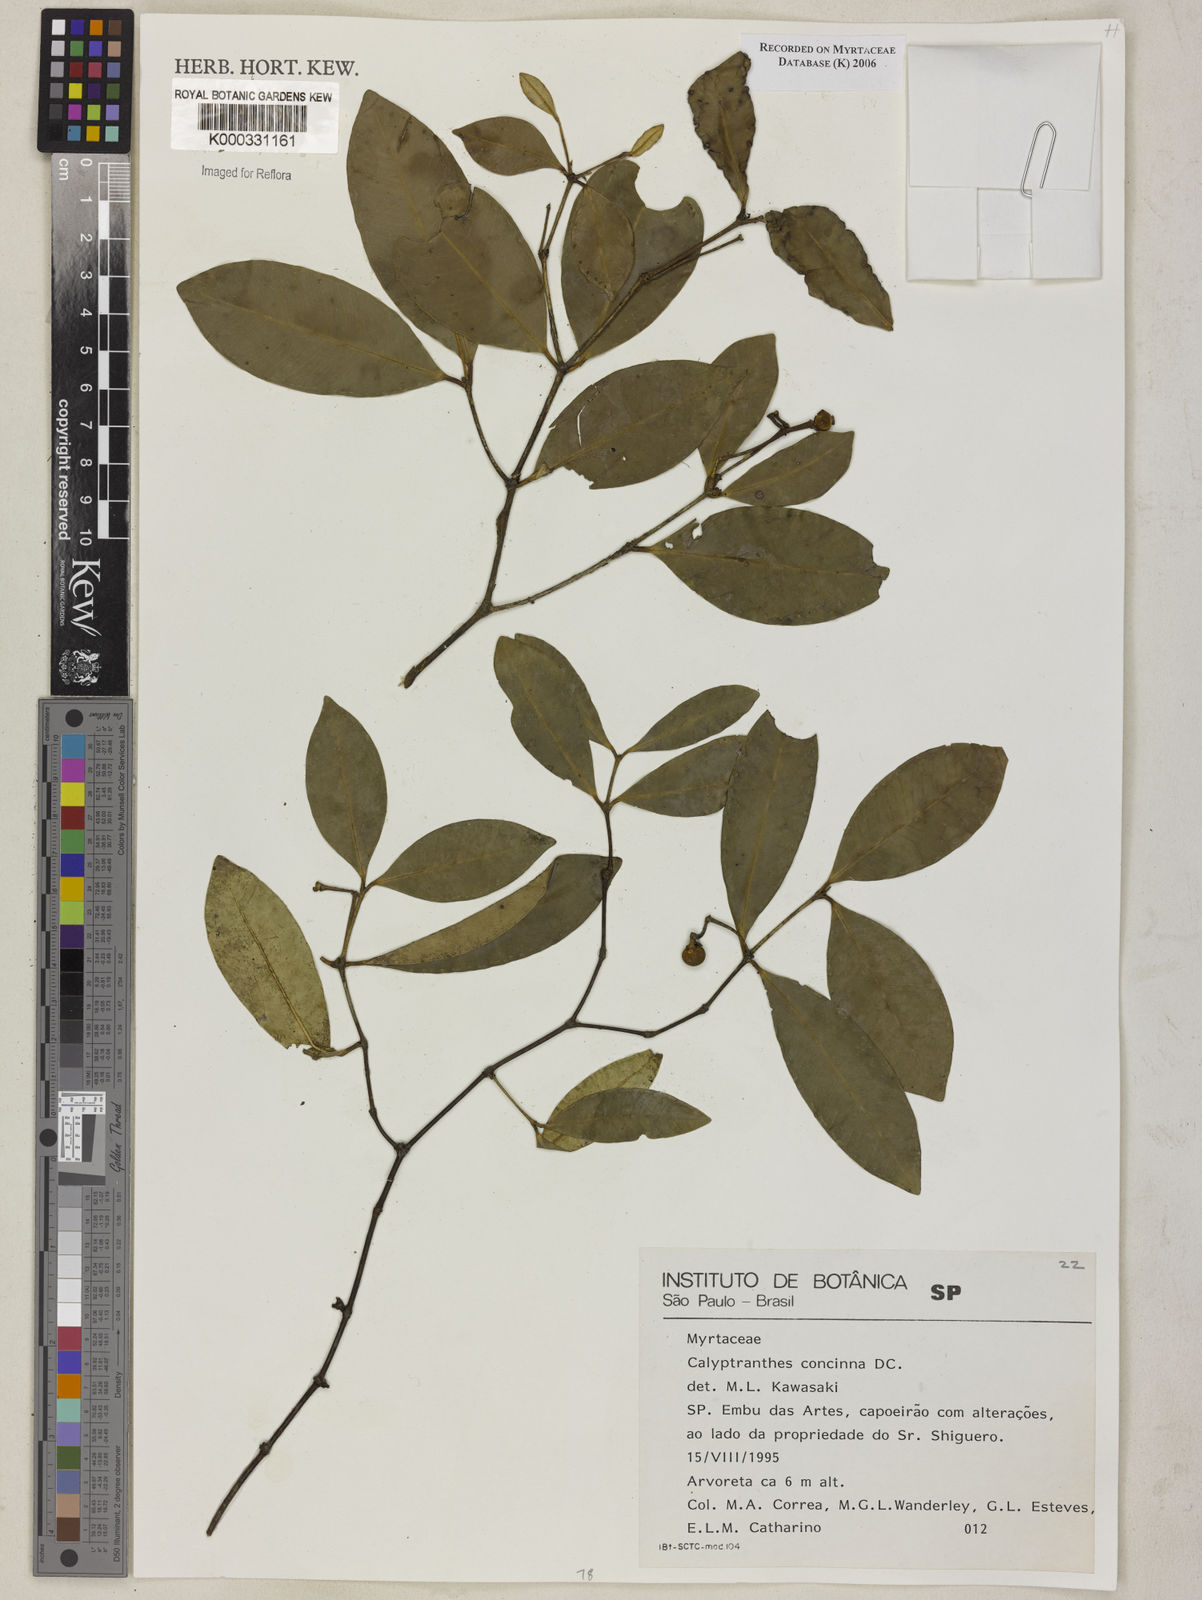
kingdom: Plantae
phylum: Tracheophyta
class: Magnoliopsida
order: Myrtales
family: Myrtaceae
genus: Myrcia
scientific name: Myrcia cruciflora
